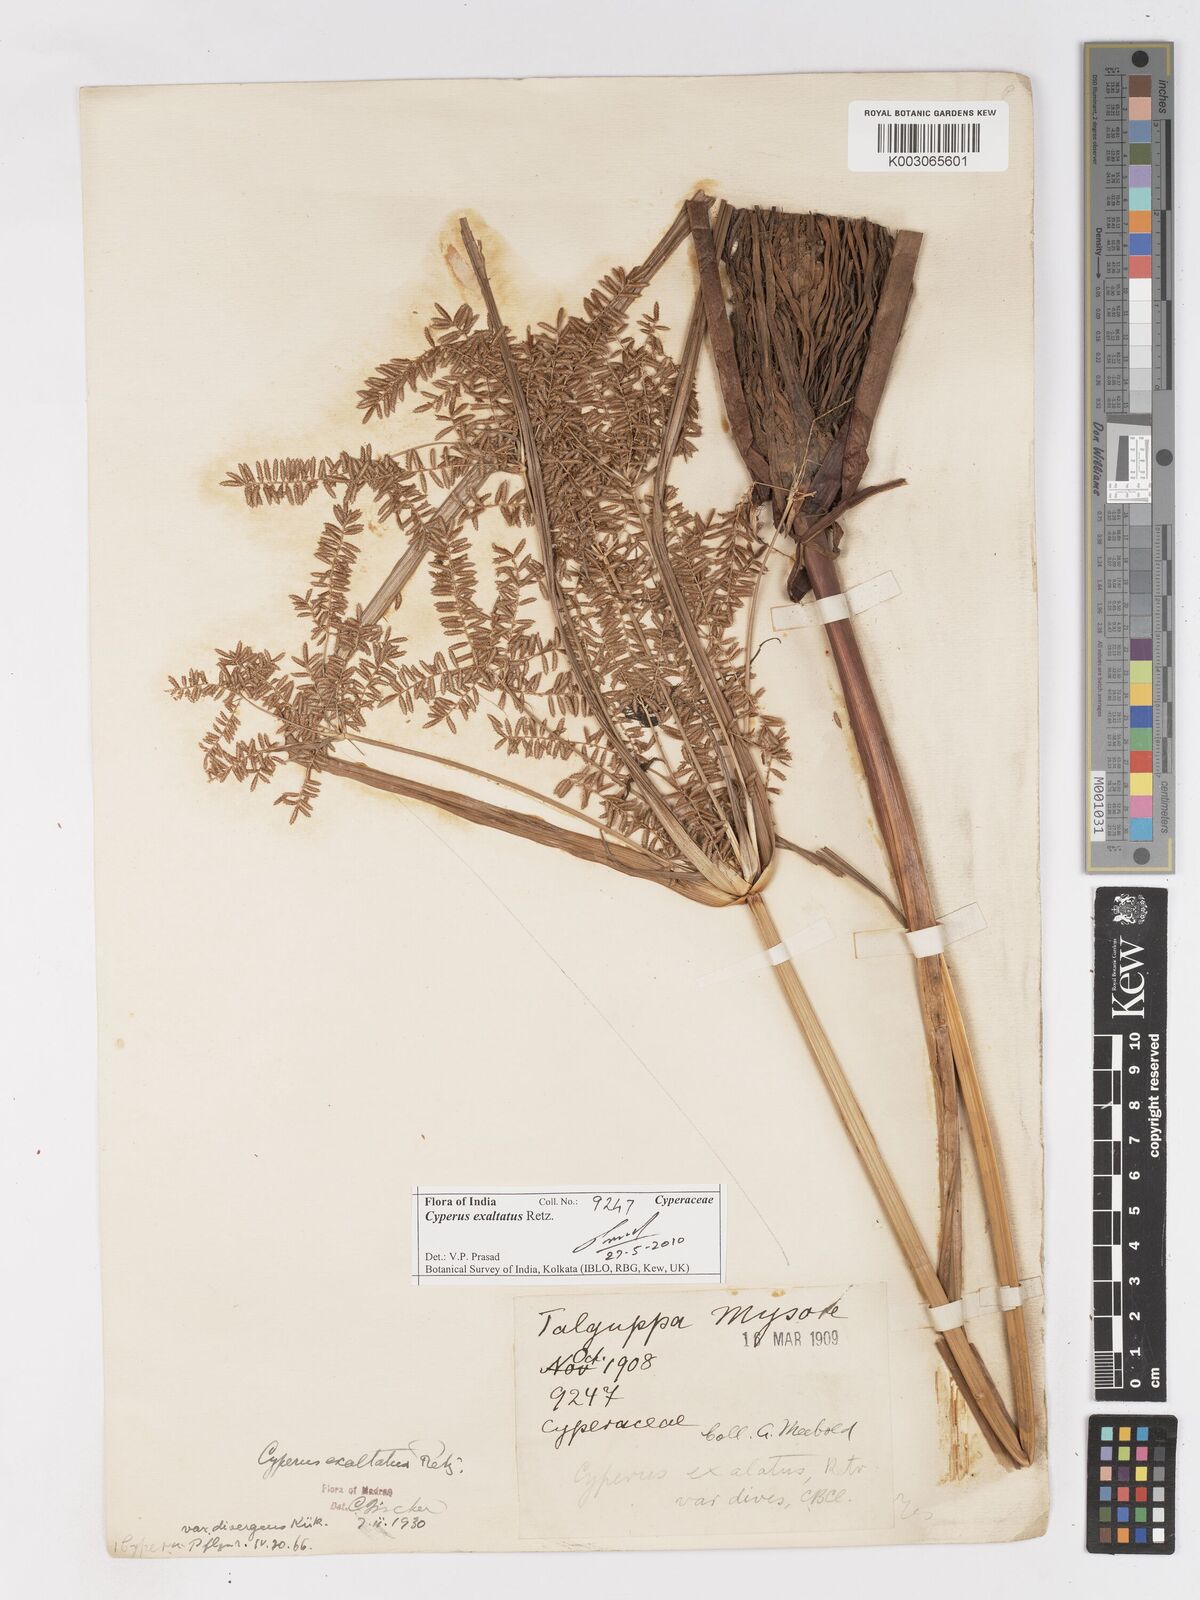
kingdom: Plantae
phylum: Tracheophyta
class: Liliopsida
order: Poales
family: Cyperaceae
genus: Cyperus
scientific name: Cyperus exaltatus
